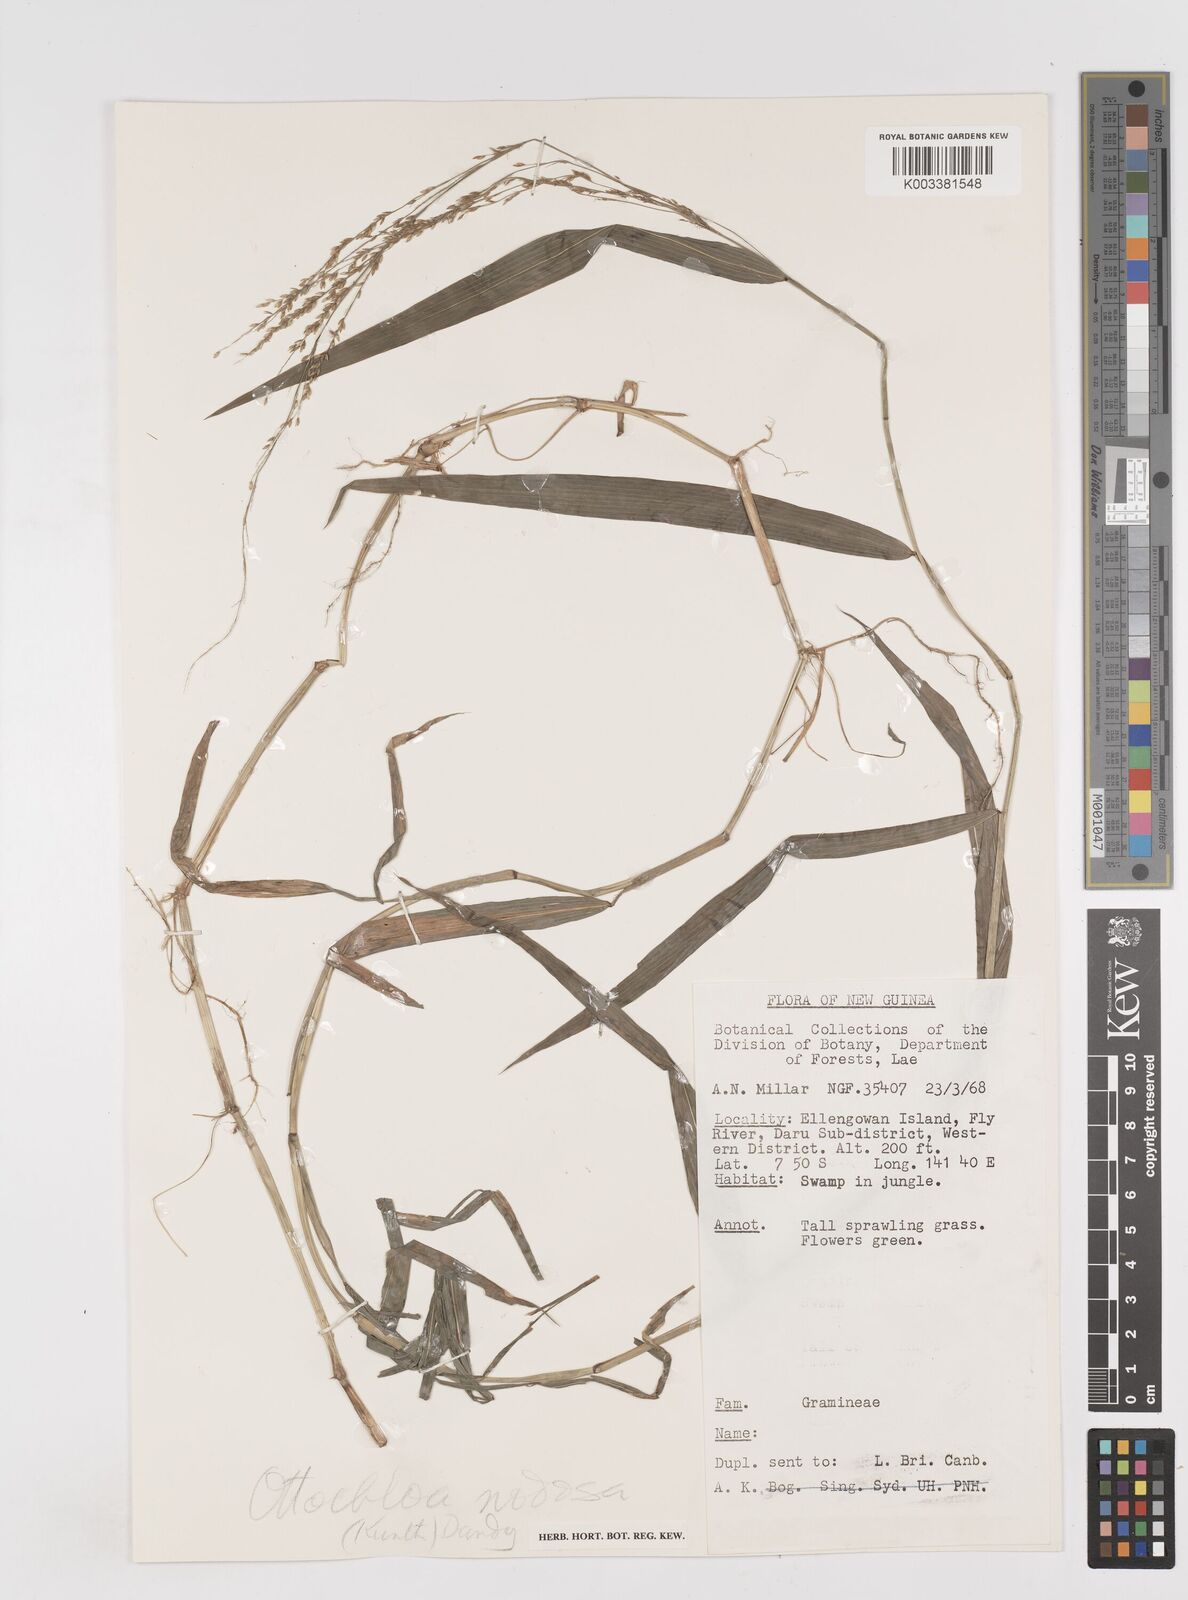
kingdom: Plantae
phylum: Tracheophyta
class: Liliopsida
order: Poales
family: Poaceae
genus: Ottochloa
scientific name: Ottochloa nodosa
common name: Slender-panic grass
